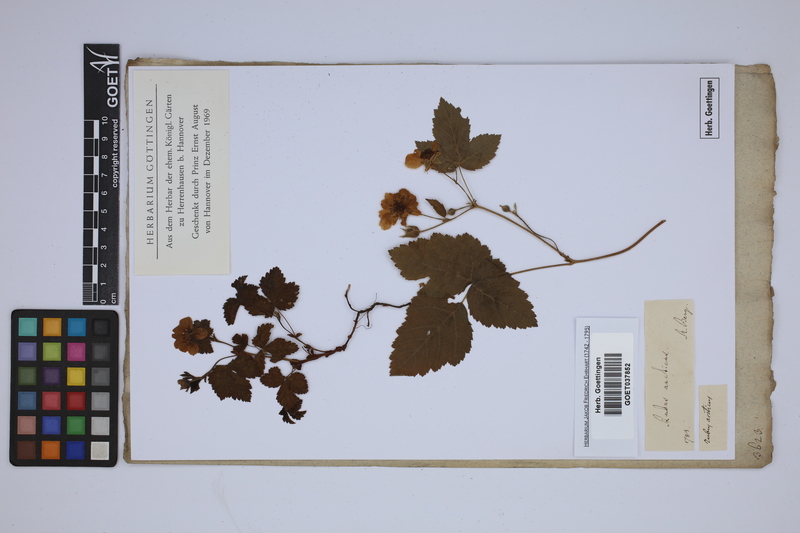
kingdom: Plantae
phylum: Tracheophyta
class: Magnoliopsida
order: Rosales
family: Rosaceae
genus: Rubus
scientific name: Rubus arcticus
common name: Arctic bramble
